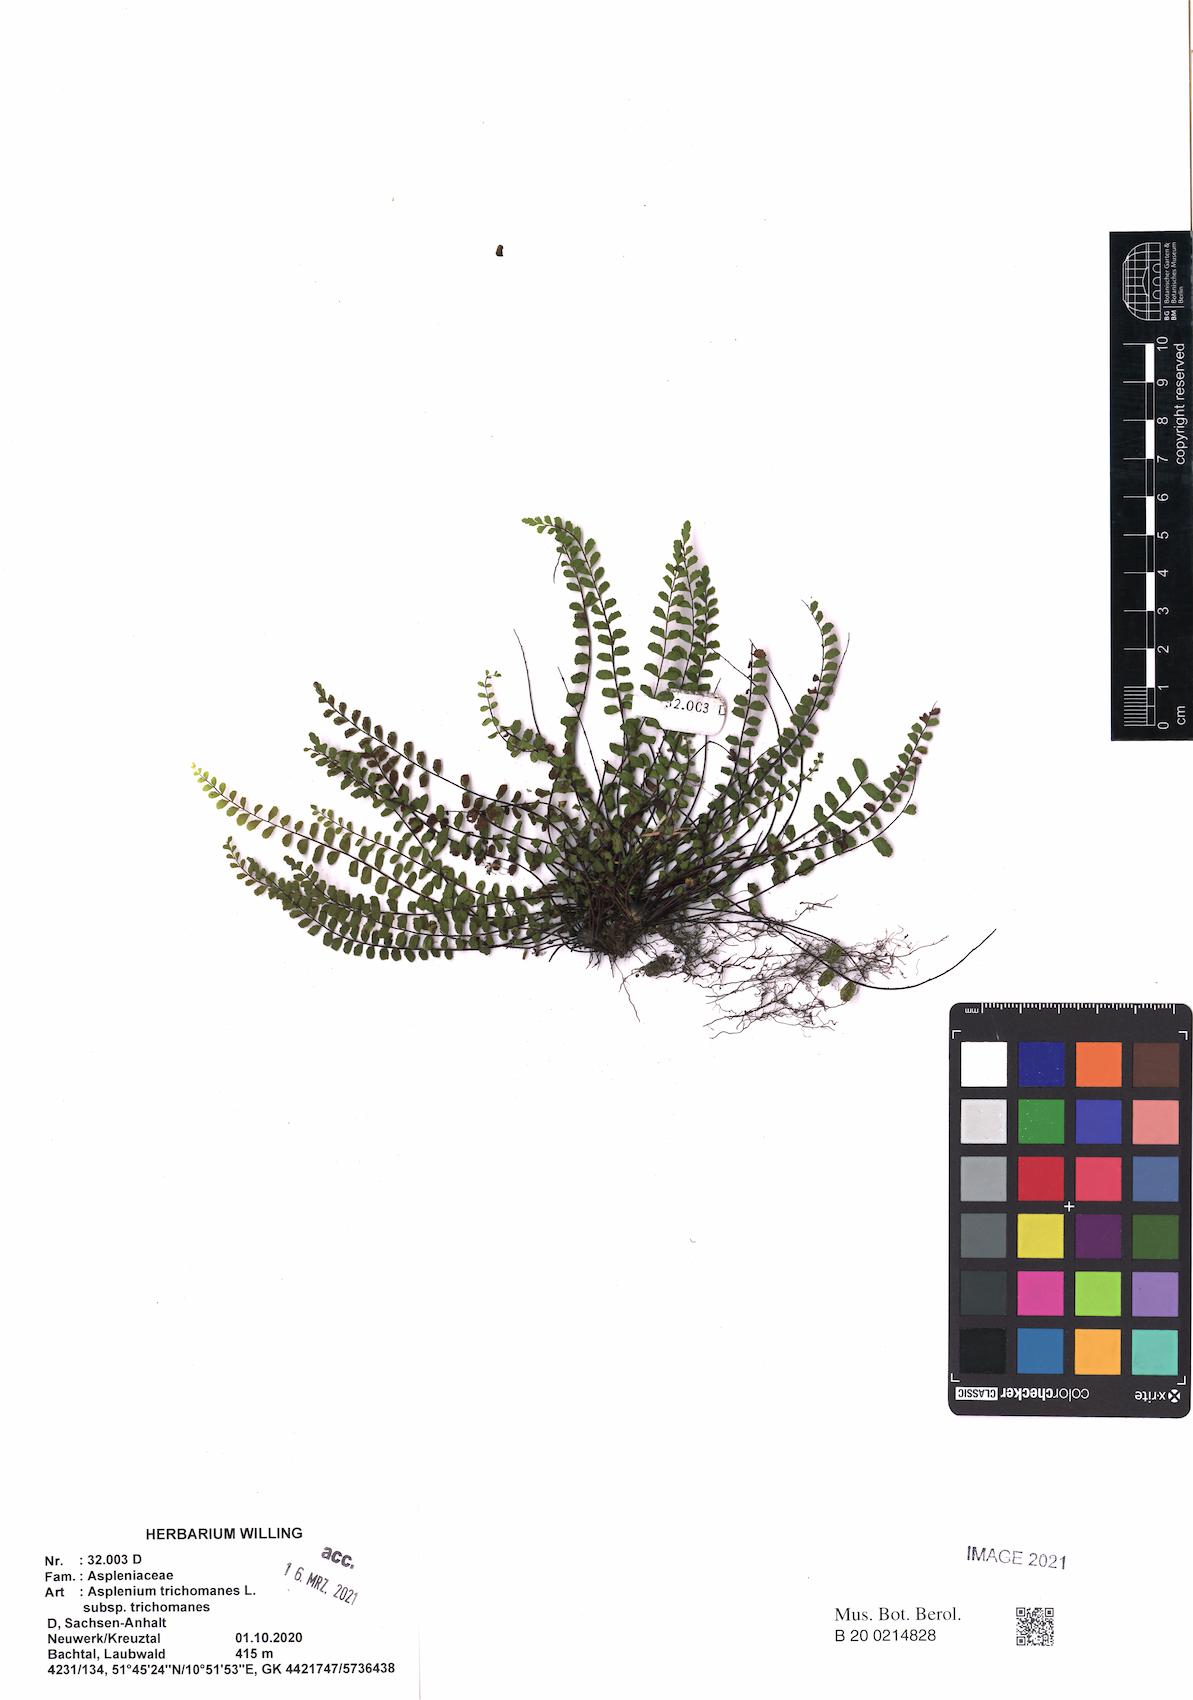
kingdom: Plantae
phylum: Tracheophyta
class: Polypodiopsida
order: Polypodiales
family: Aspleniaceae
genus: Asplenium
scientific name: Asplenium trichomanes
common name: Maidenhair spleenwort
